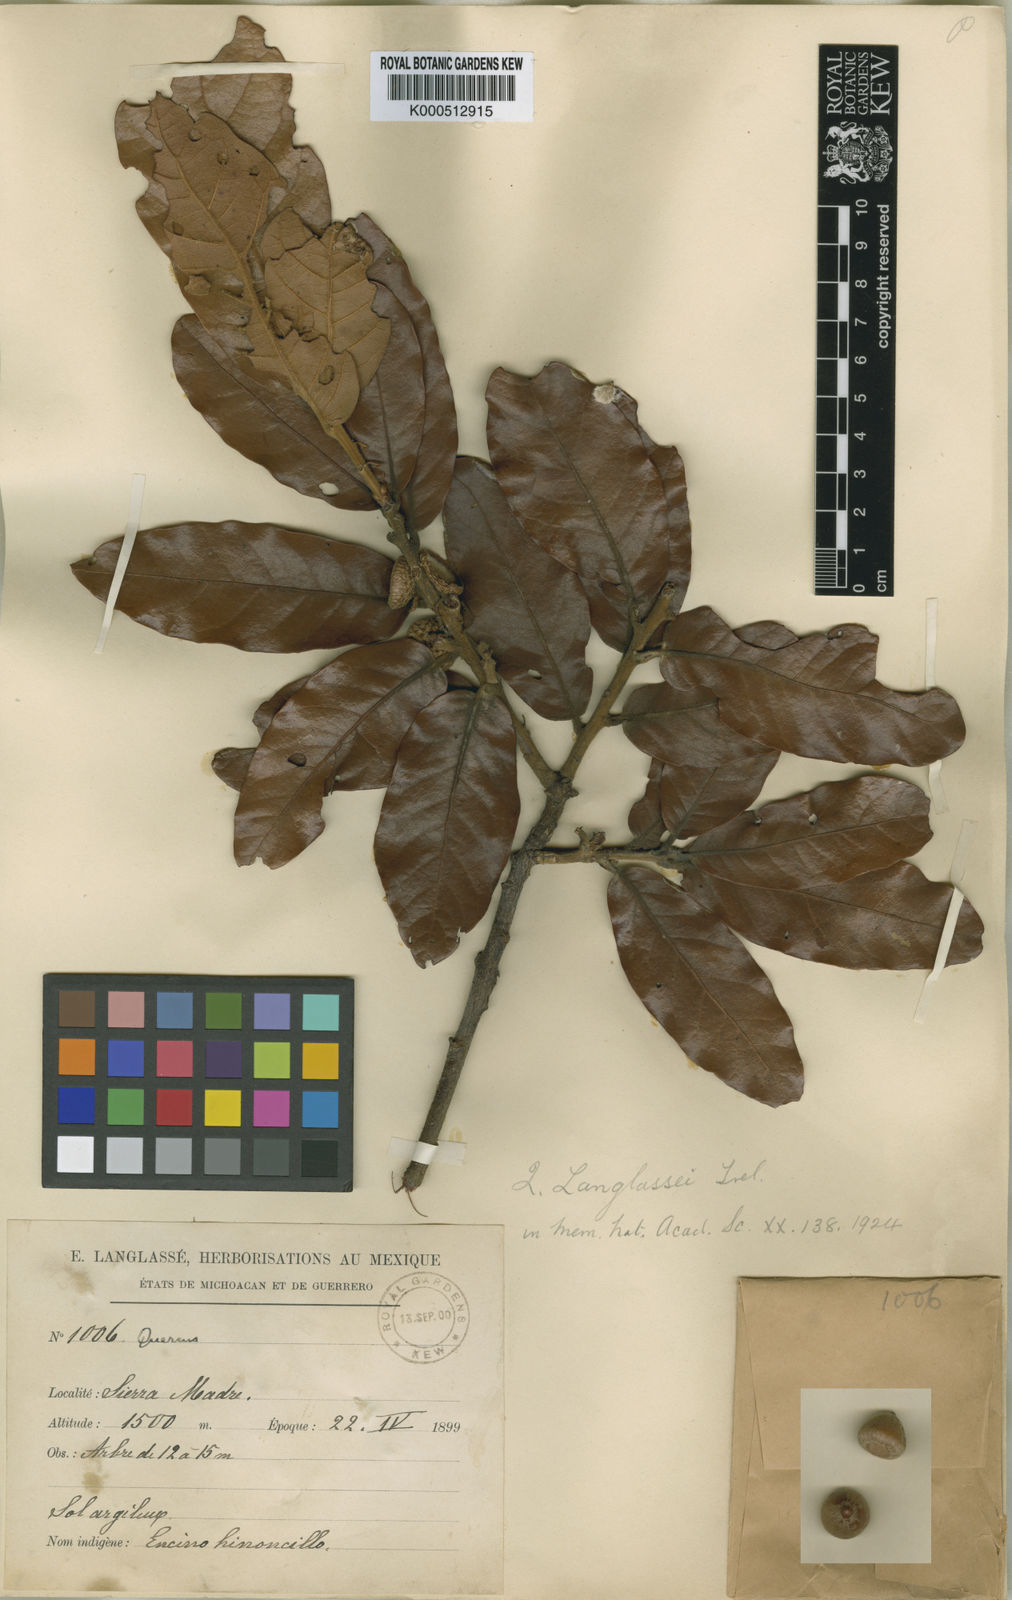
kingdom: Plantae
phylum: Tracheophyta
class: Magnoliopsida
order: Fagales
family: Fagaceae
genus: Quercus
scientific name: Quercus elliptica
